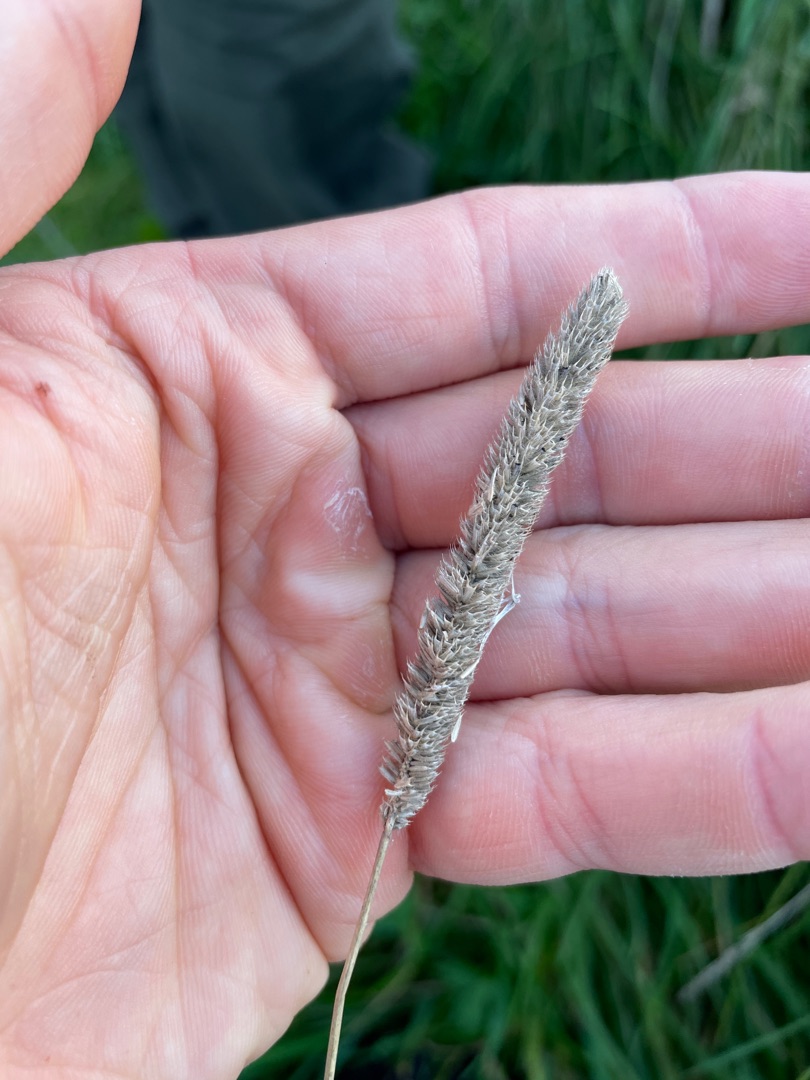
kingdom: Plantae
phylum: Tracheophyta
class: Liliopsida
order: Poales
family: Poaceae
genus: Phleum
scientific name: Phleum pratense
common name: Eng-rottehale
